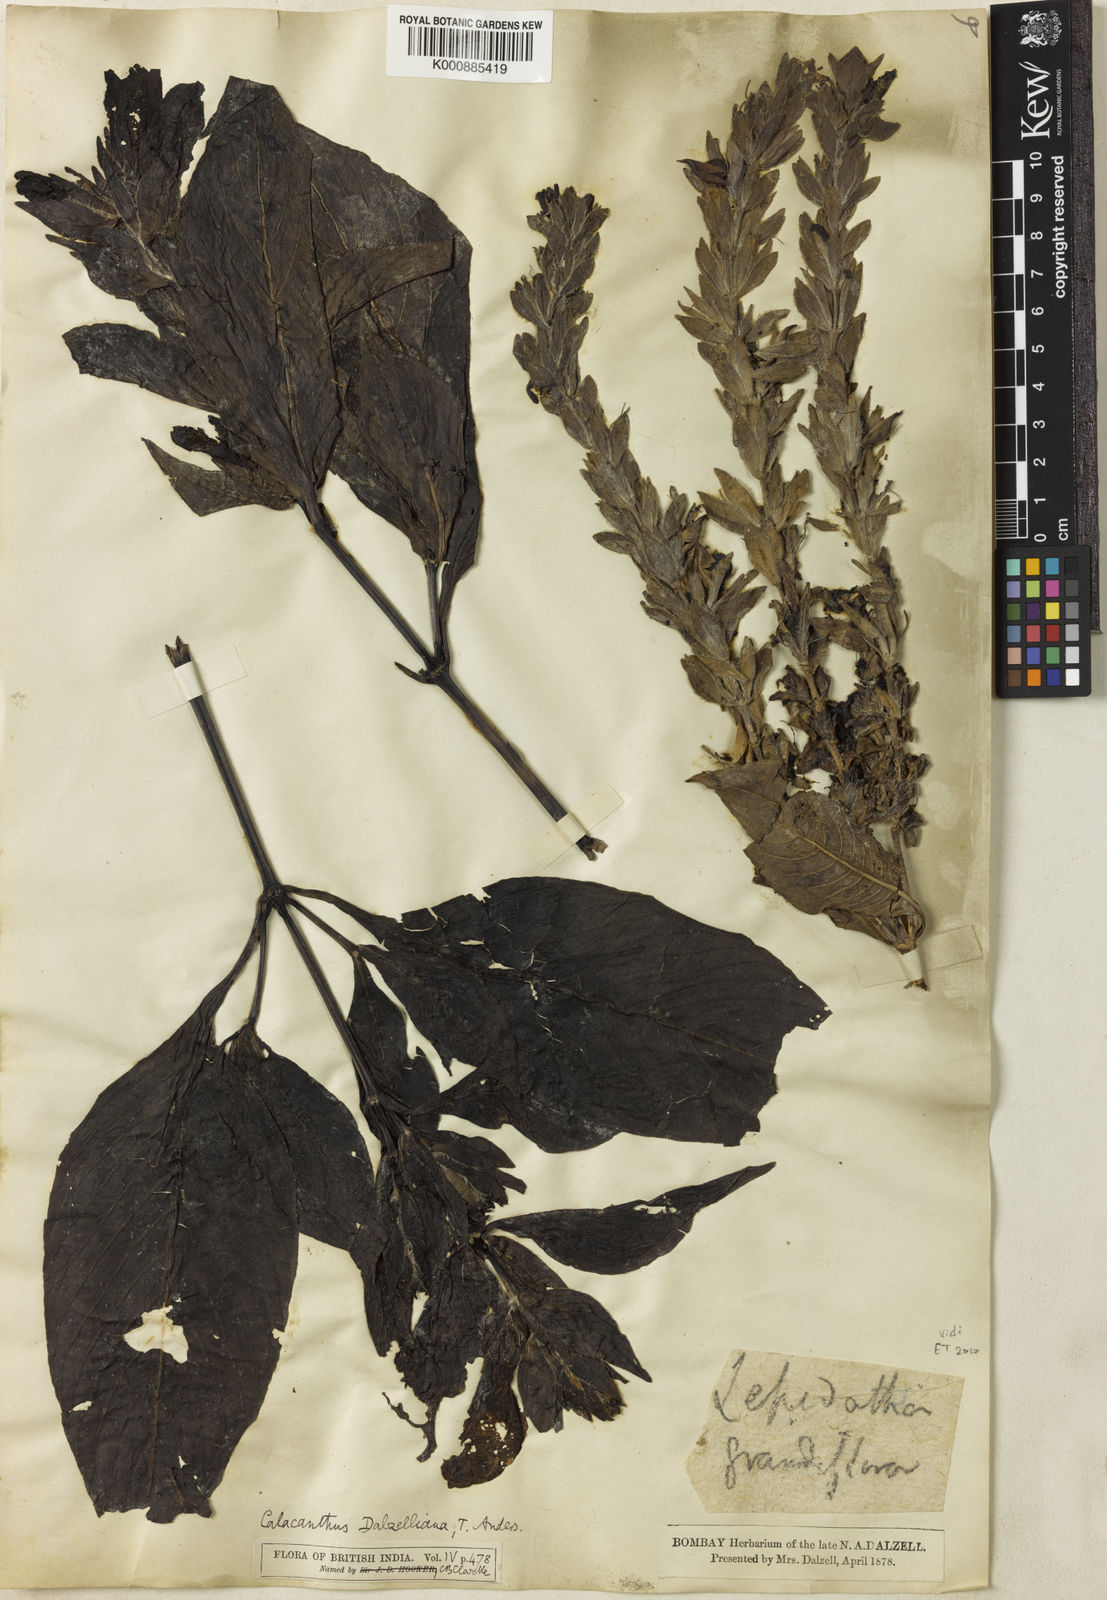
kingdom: Plantae
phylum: Tracheophyta
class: Magnoliopsida
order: Lamiales
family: Acanthaceae
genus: Calacanthus
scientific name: Calacanthus grandiflorus
